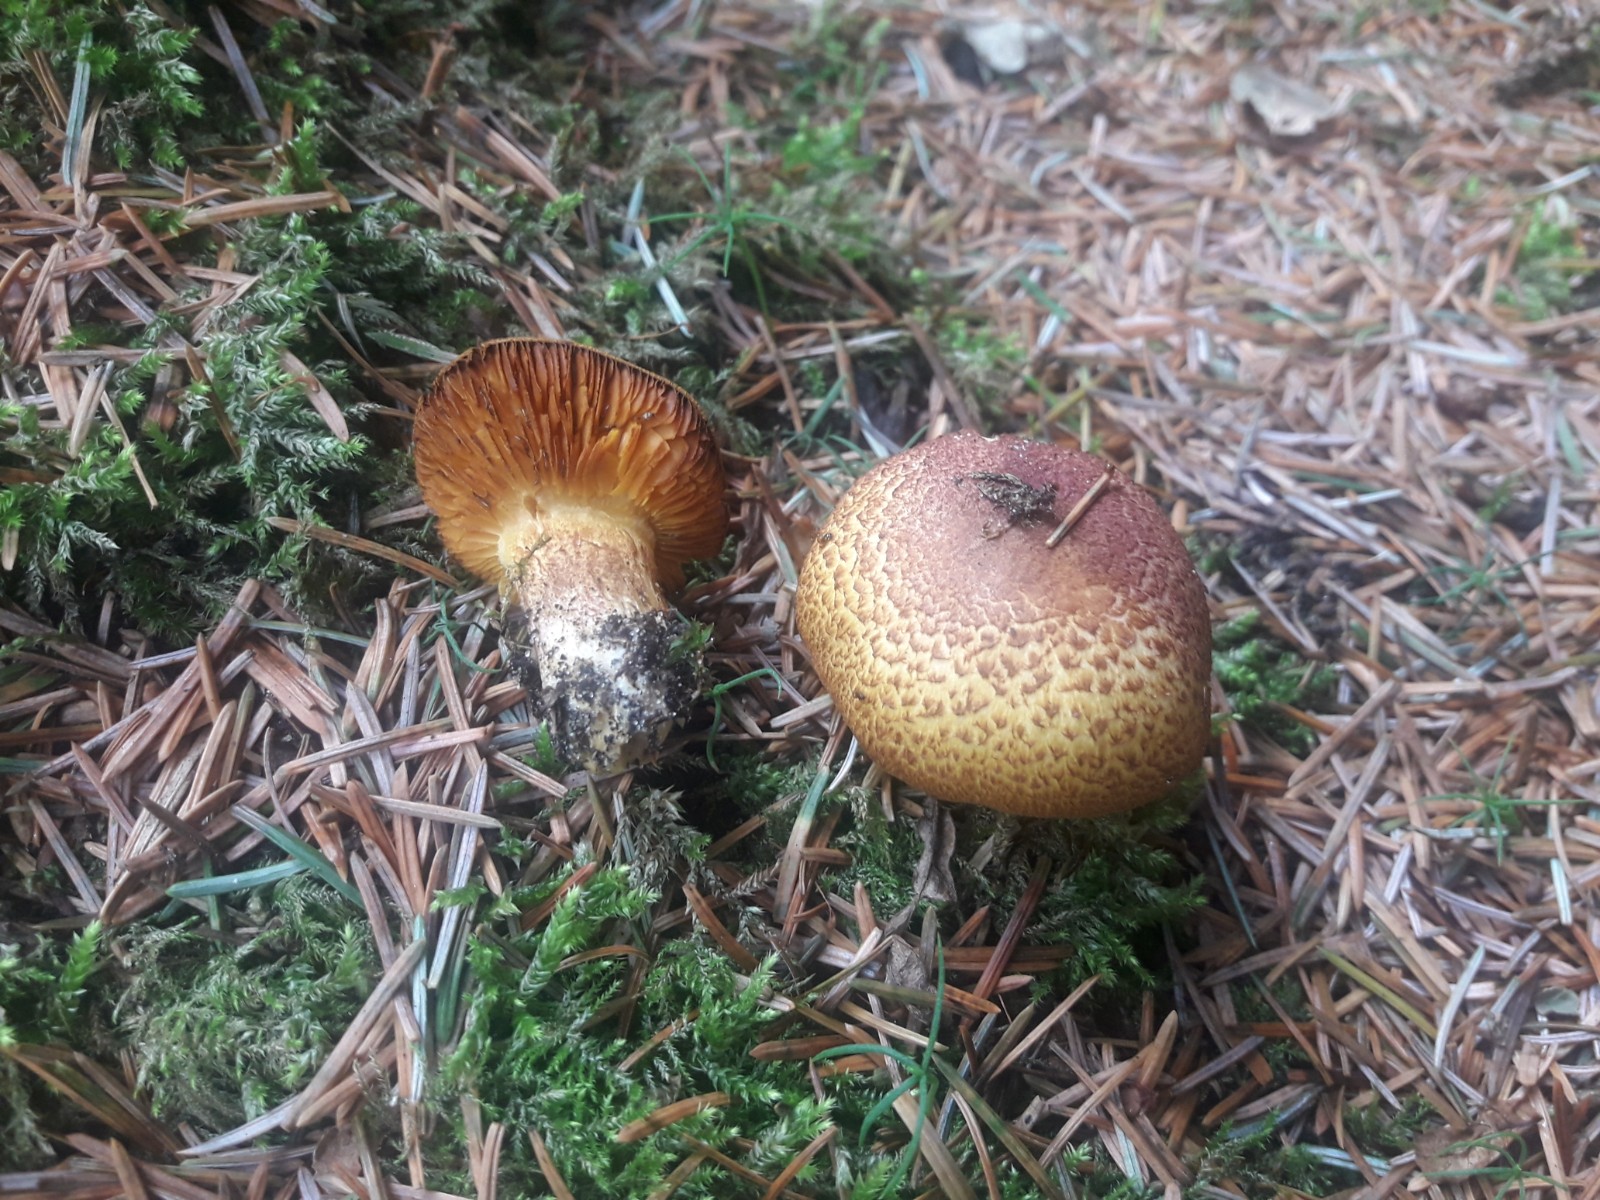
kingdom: Fungi
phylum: Basidiomycota
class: Agaricomycetes
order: Agaricales
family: Tricholomataceae
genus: Tricholomopsis
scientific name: Tricholomopsis rutilans
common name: purpur-væbnerhat
